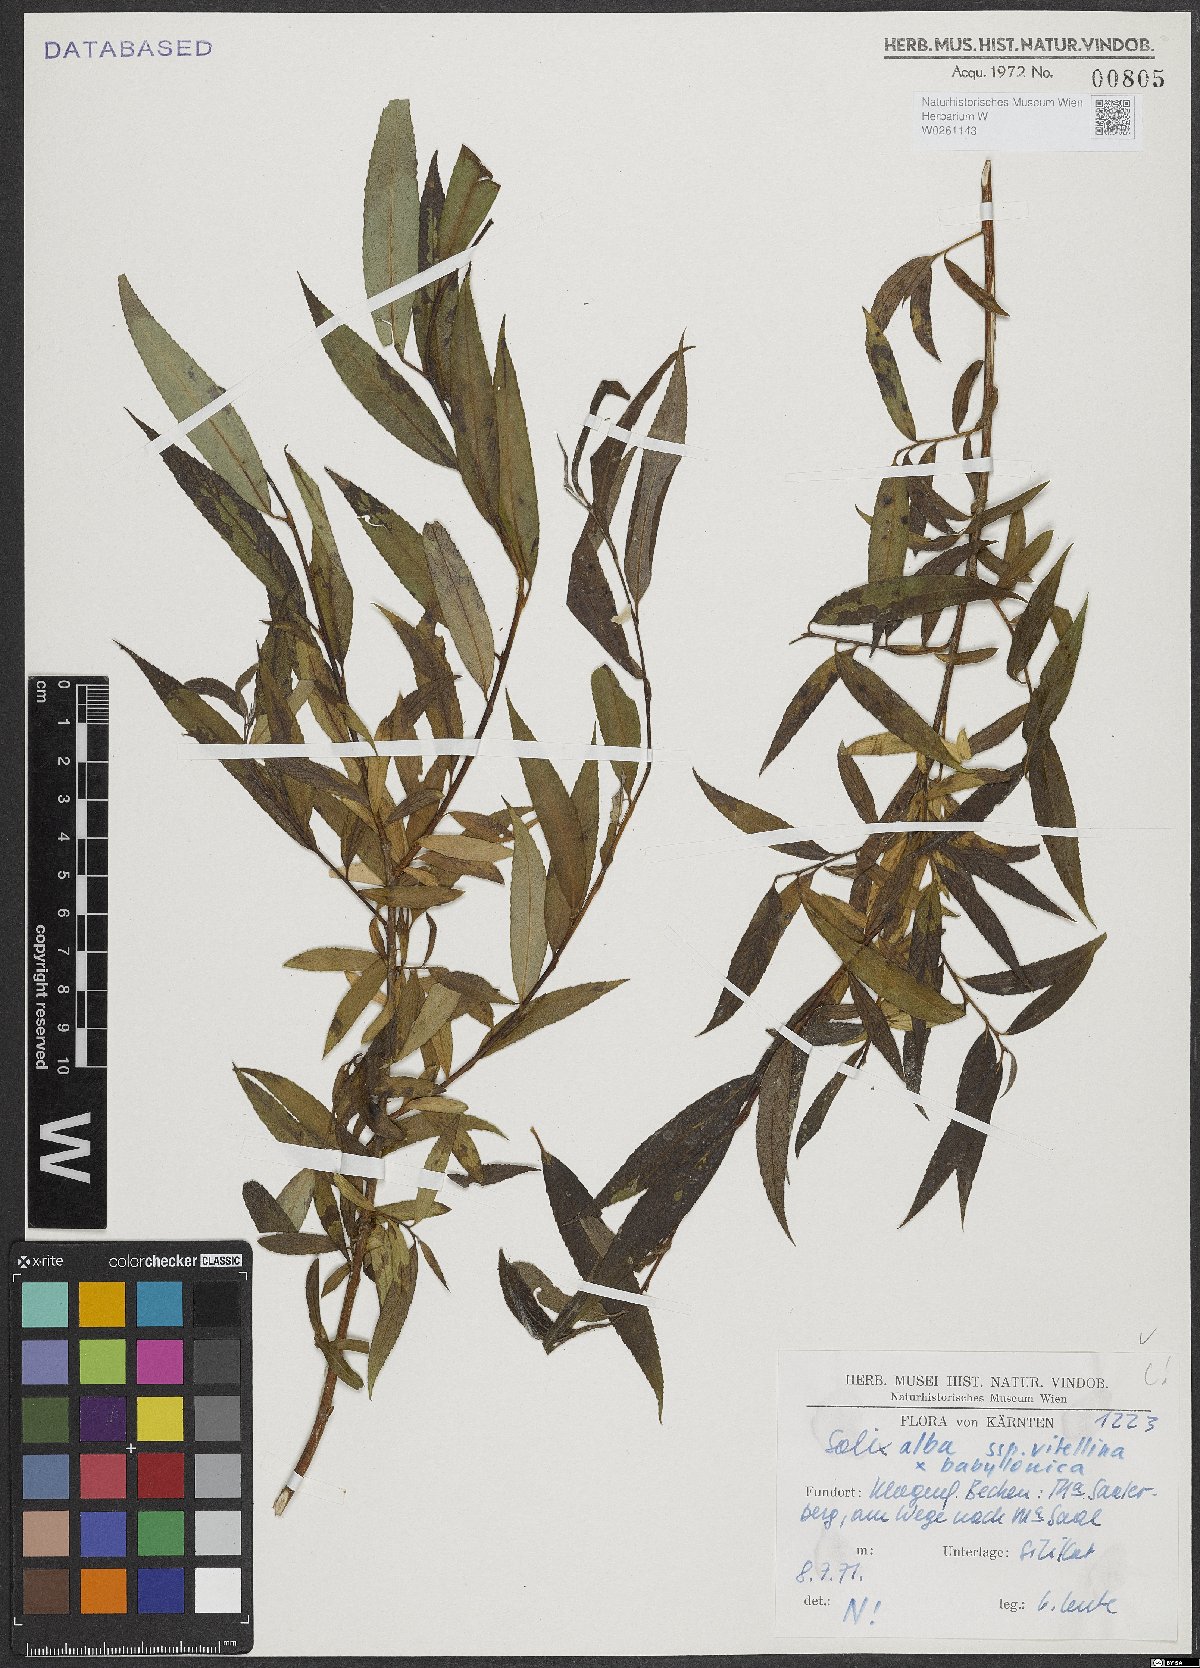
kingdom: Plantae
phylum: Tracheophyta
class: Magnoliopsida
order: Malpighiales
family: Salicaceae
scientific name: Salicaceae
